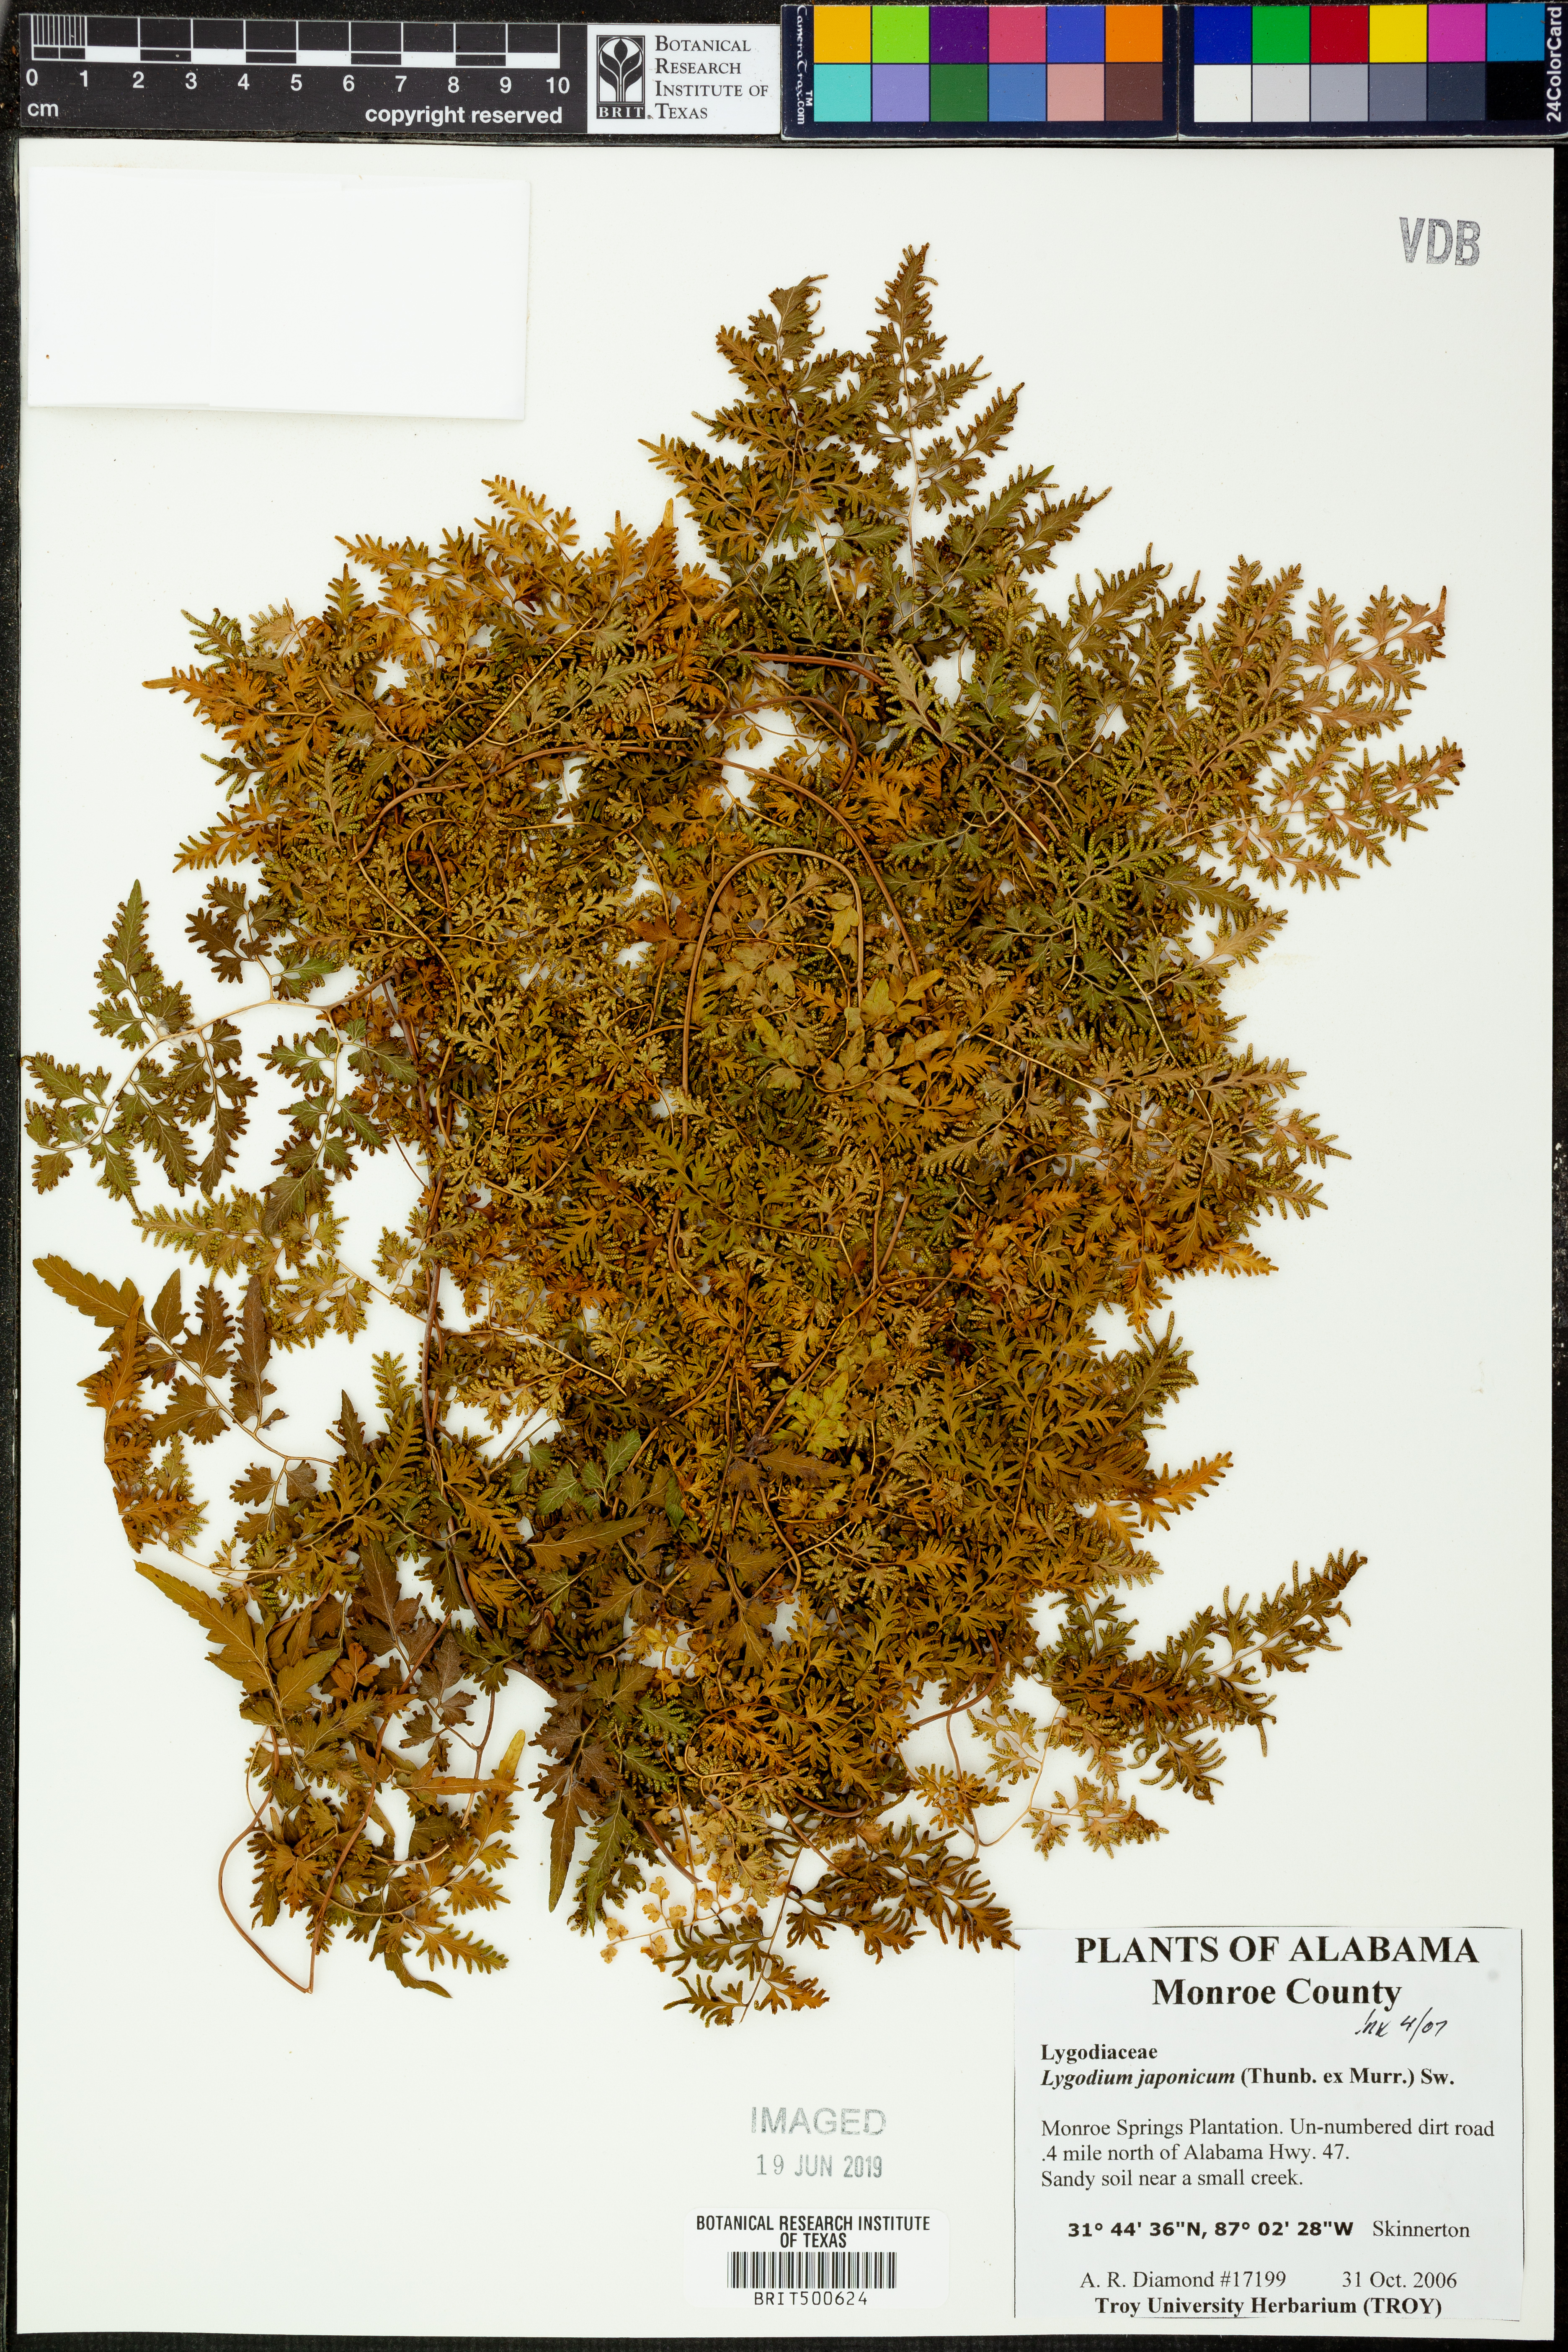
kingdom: Plantae
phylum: Tracheophyta
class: Polypodiopsida
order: Schizaeales
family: Lygodiaceae
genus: Lygodium
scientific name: Lygodium japonicum
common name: Japanese climbing fern
